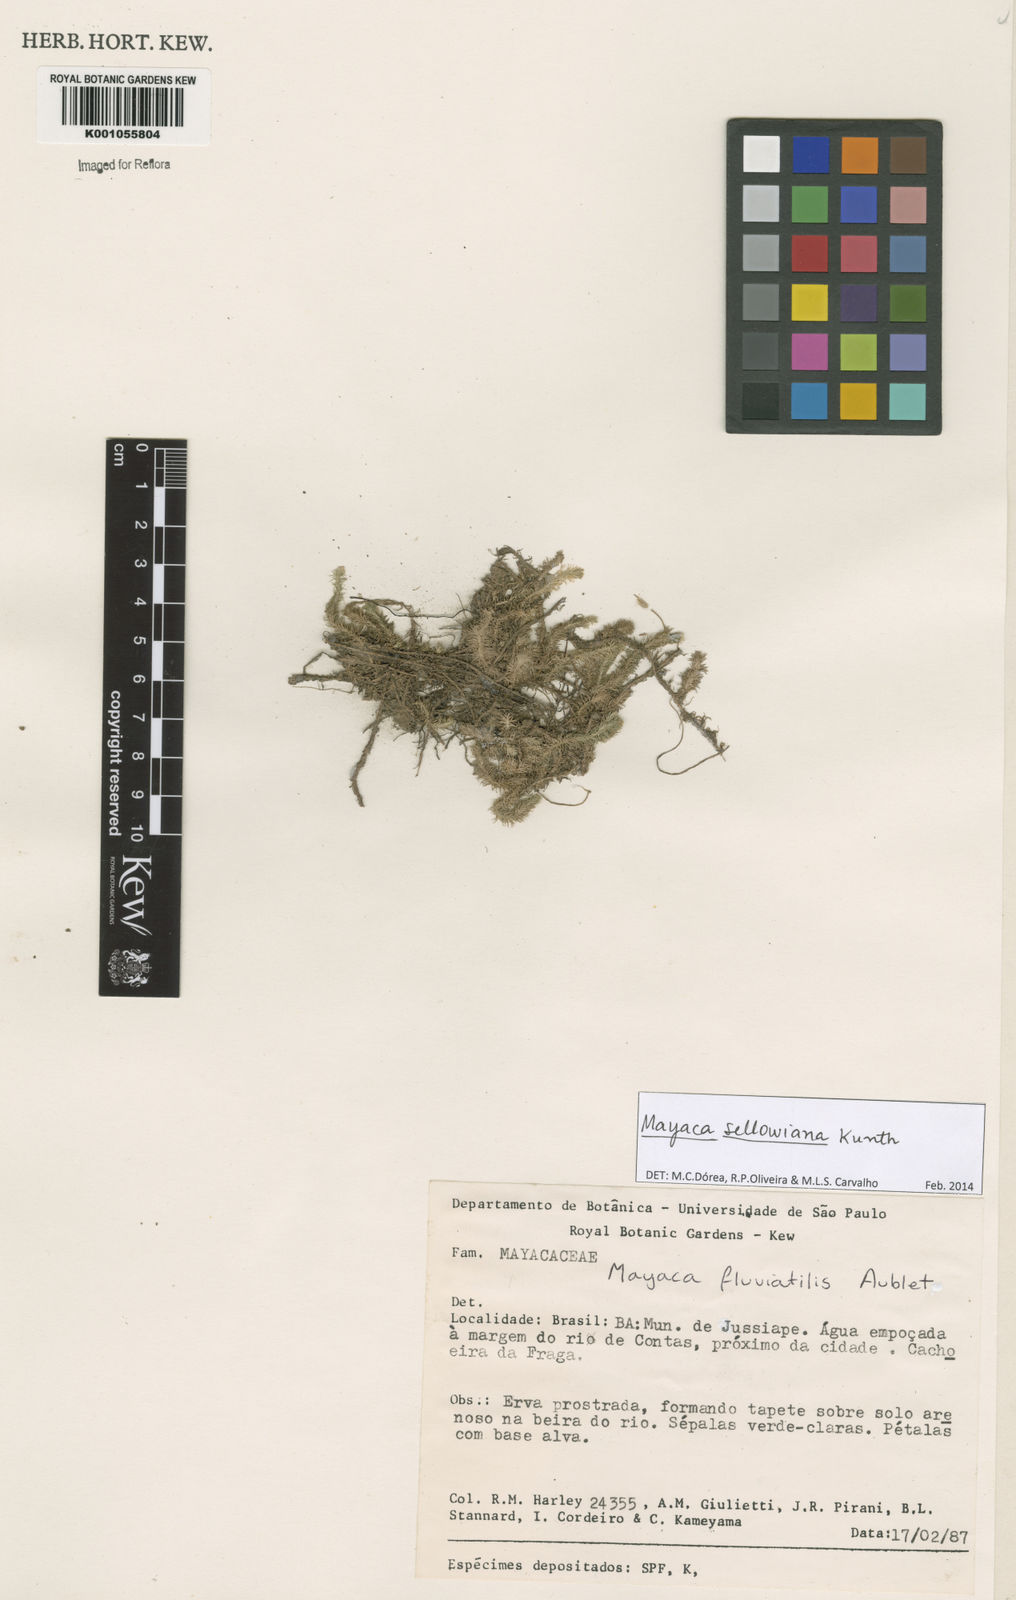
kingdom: Plantae
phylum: Tracheophyta
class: Liliopsida
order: Poales
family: Mayacaceae
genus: Mayaca
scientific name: Mayaca sellowiana
